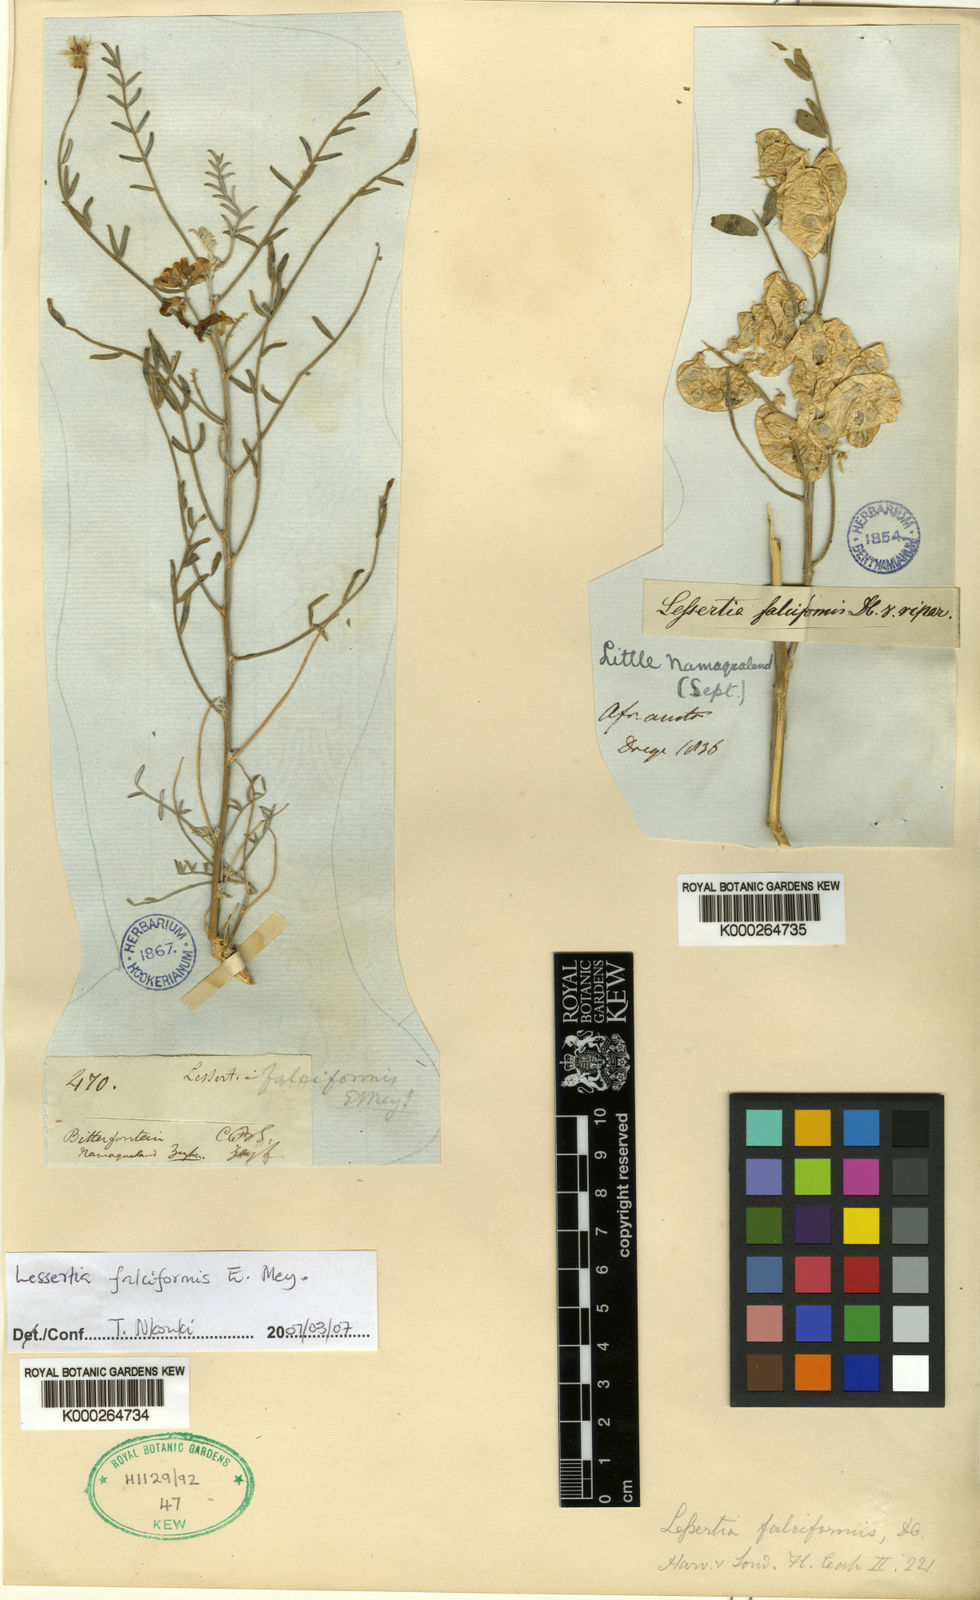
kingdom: Plantae
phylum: Tracheophyta
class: Magnoliopsida
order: Fabales
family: Fabaceae
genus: Lessertia
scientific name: Lessertia falciformis
